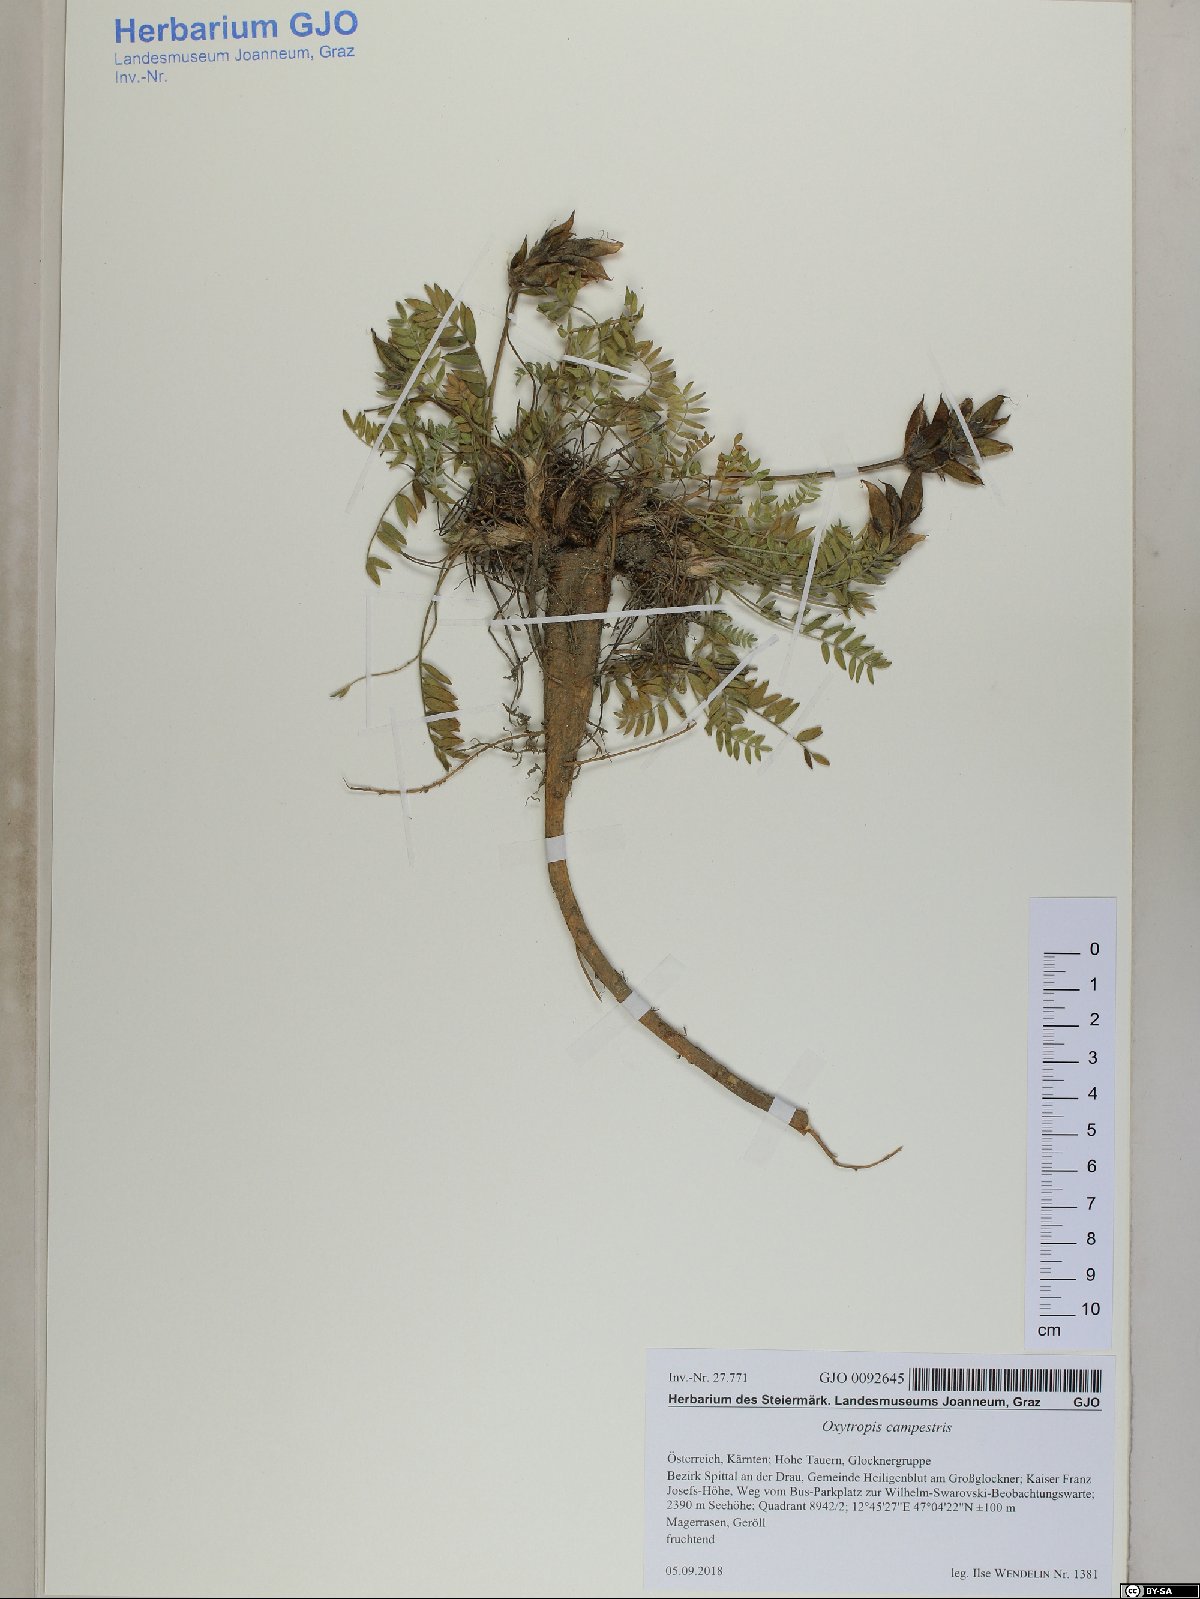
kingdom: Plantae
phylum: Tracheophyta
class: Magnoliopsida
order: Fabales
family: Fabaceae
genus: Oxytropis
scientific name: Oxytropis campestris
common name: Field locoweed
